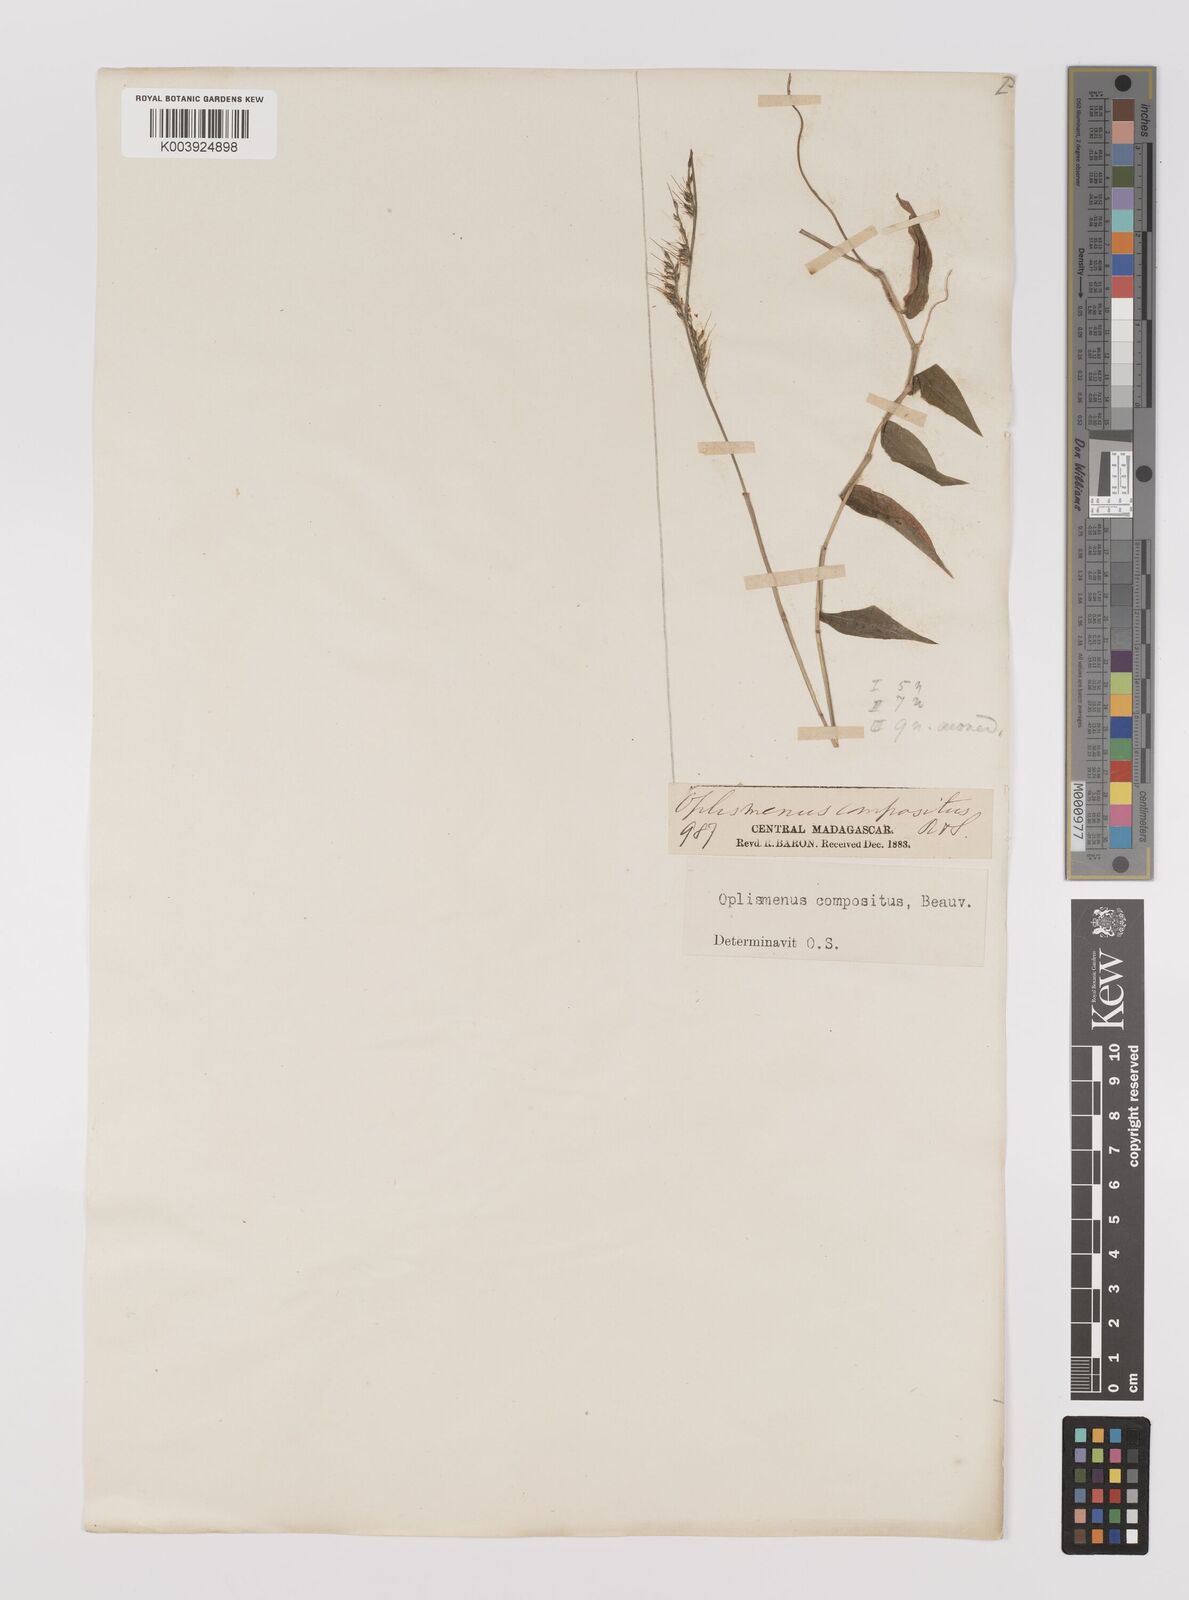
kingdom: Plantae
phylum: Tracheophyta
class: Liliopsida
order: Poales
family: Poaceae
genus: Oplismenus
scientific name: Oplismenus hirtellus
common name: Basketgrass
